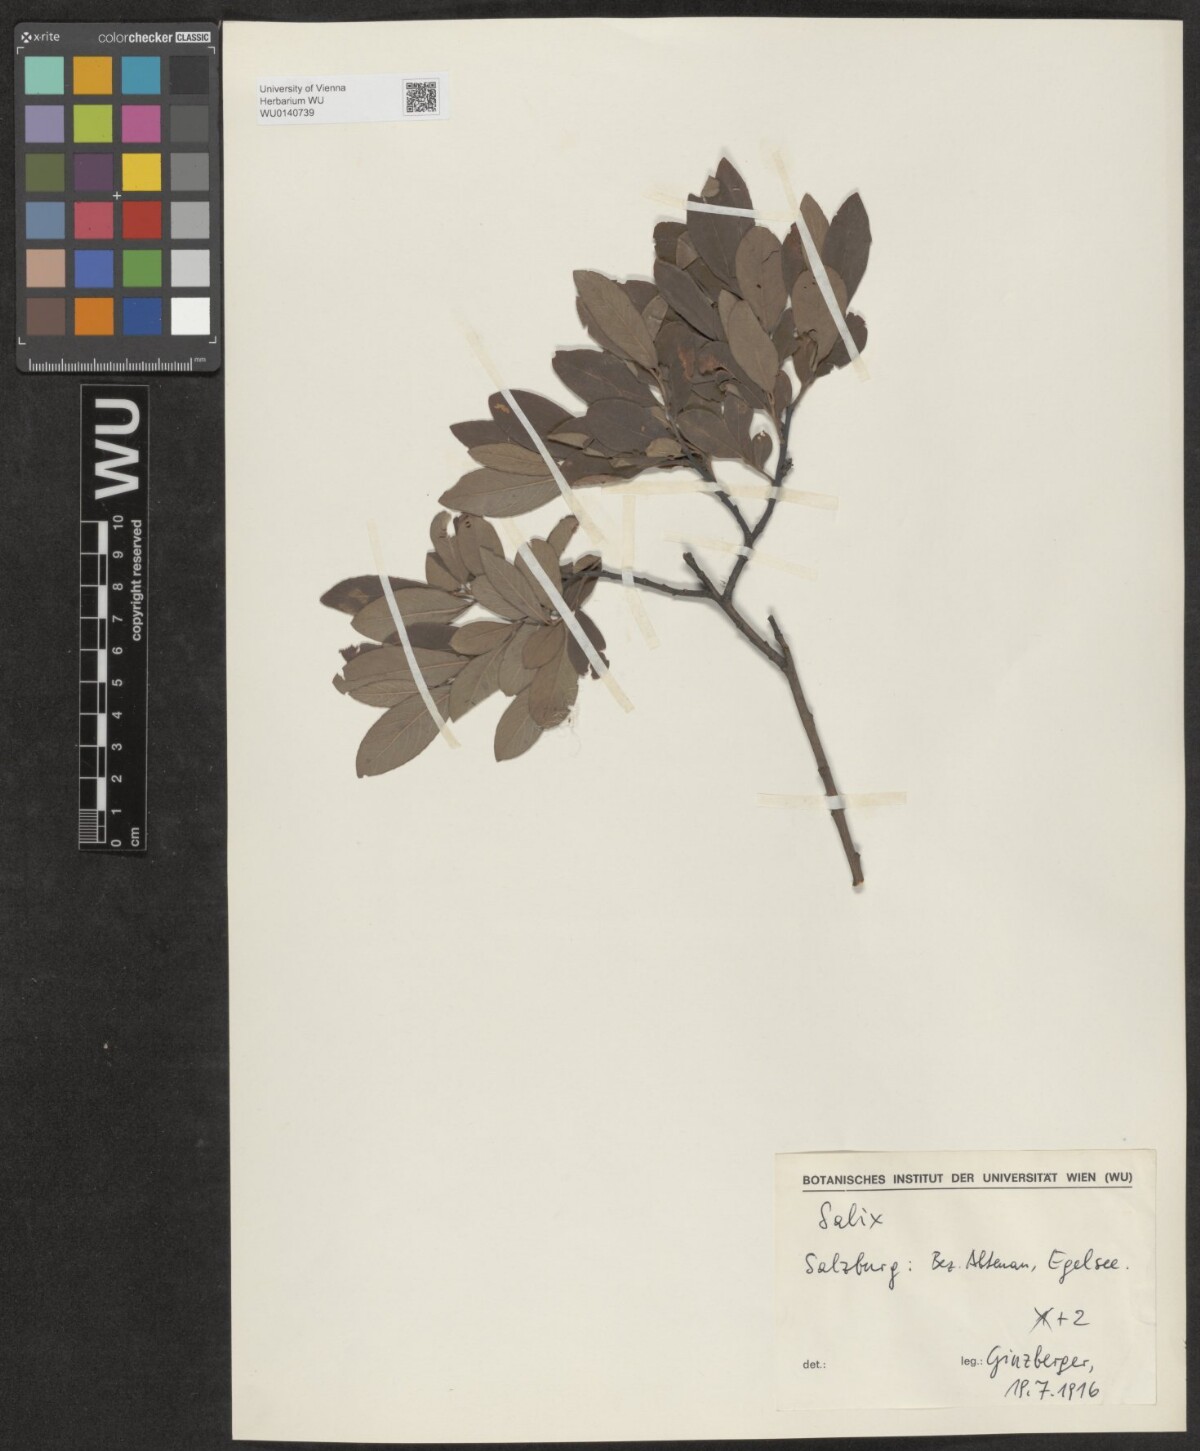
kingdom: Plantae
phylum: Tracheophyta
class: Magnoliopsida
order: Malpighiales
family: Salicaceae
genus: Salix
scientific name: Salix
